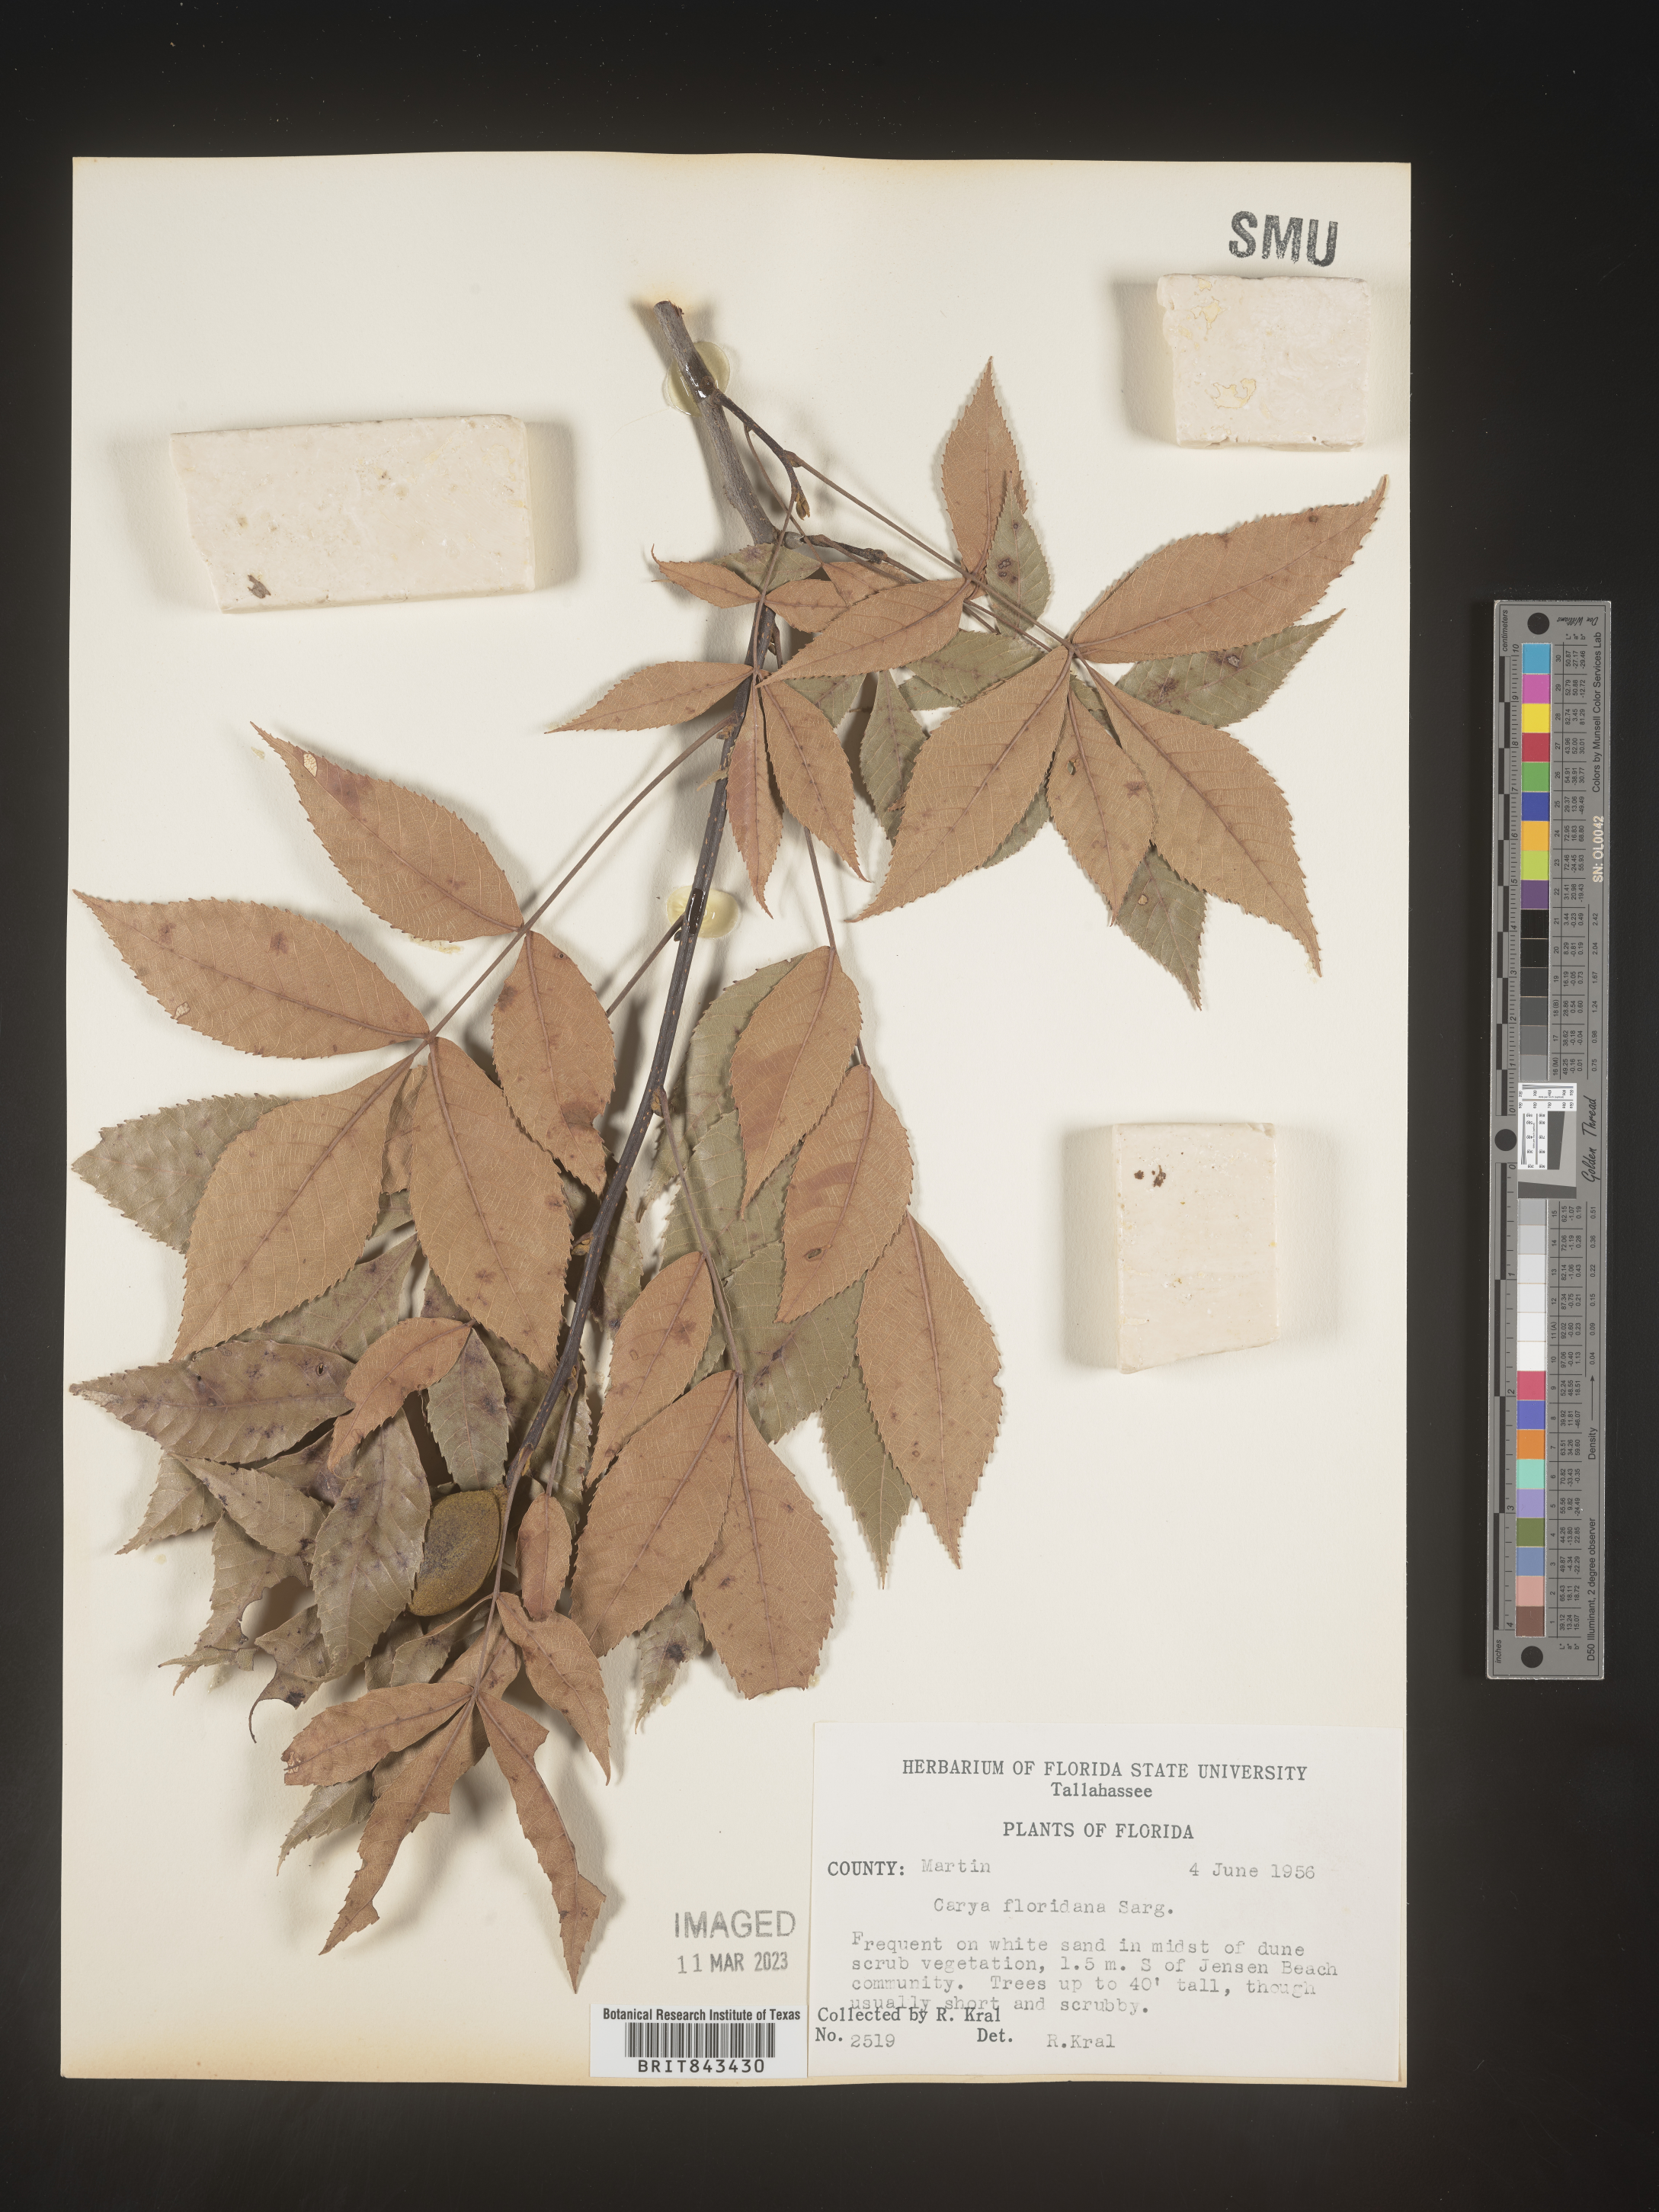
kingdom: Plantae
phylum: Tracheophyta
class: Magnoliopsida
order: Fagales
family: Juglandaceae
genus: Carya
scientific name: Carya glabra
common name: Pignut hickory
